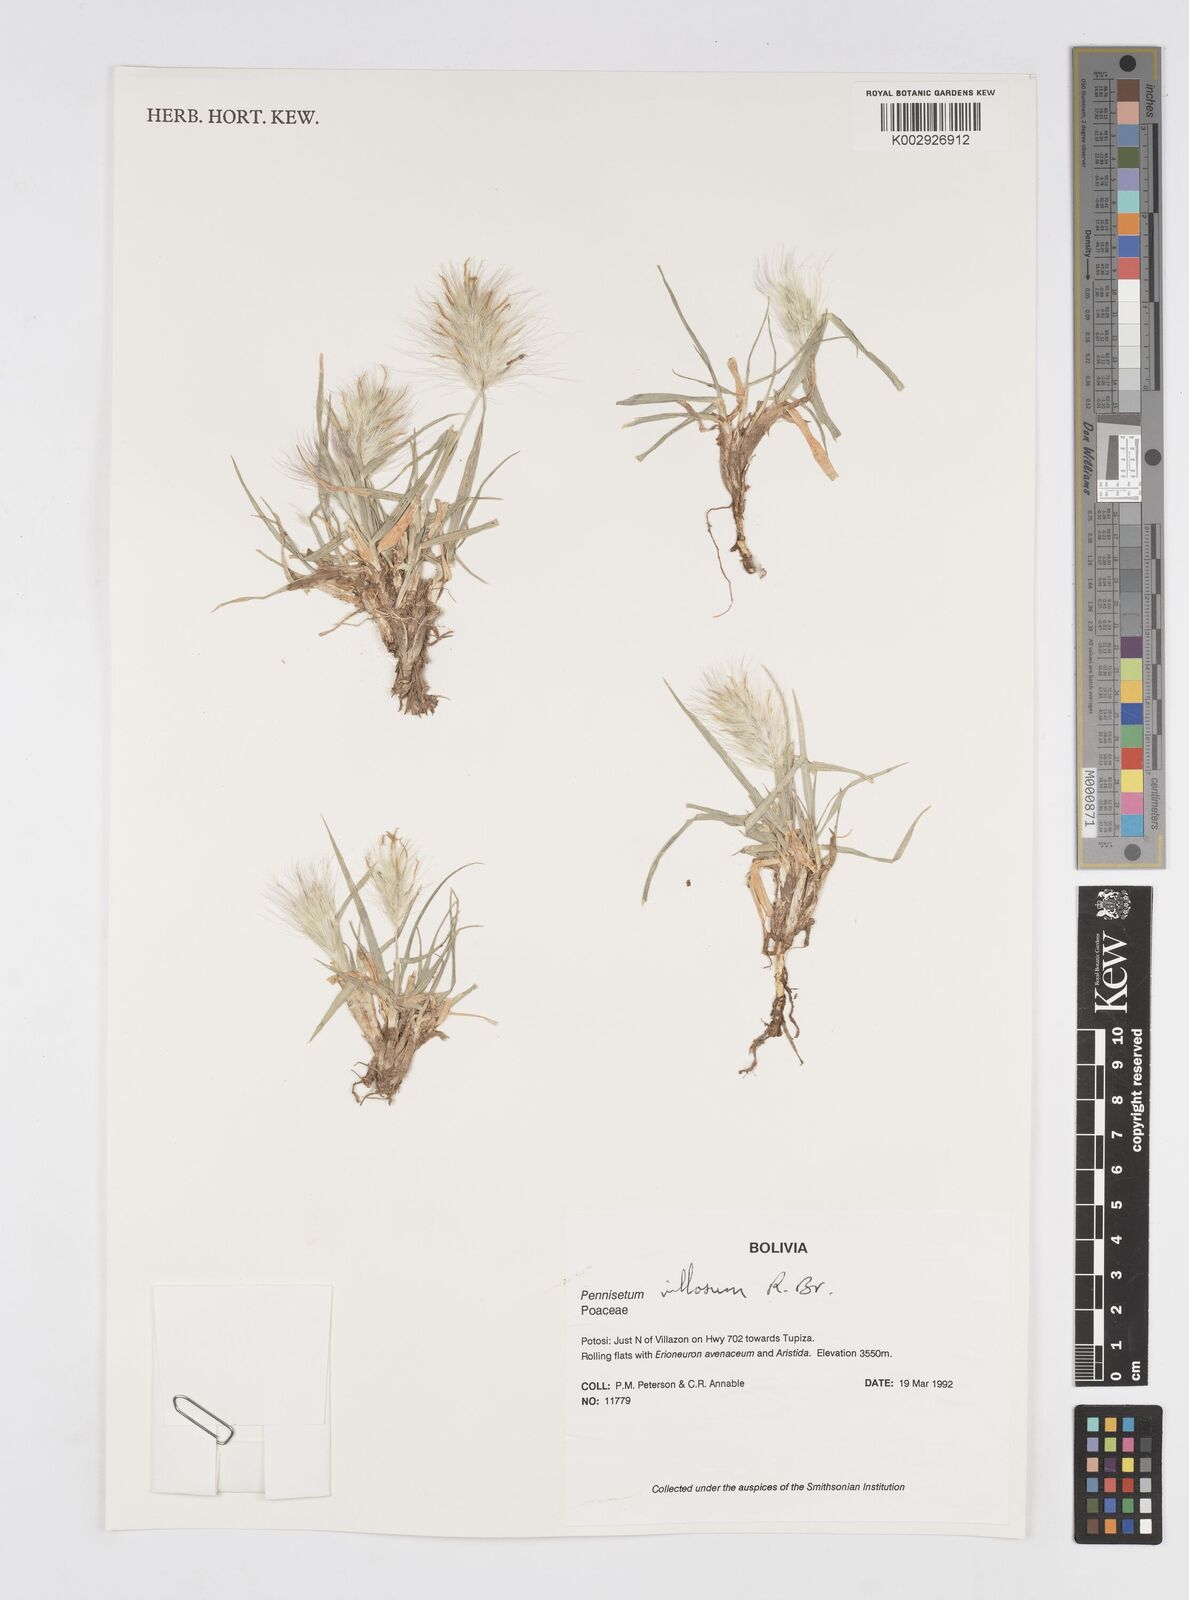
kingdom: Plantae
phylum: Tracheophyta
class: Liliopsida
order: Poales
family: Poaceae
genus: Cenchrus
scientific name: Cenchrus longisetus
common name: Feathertop
